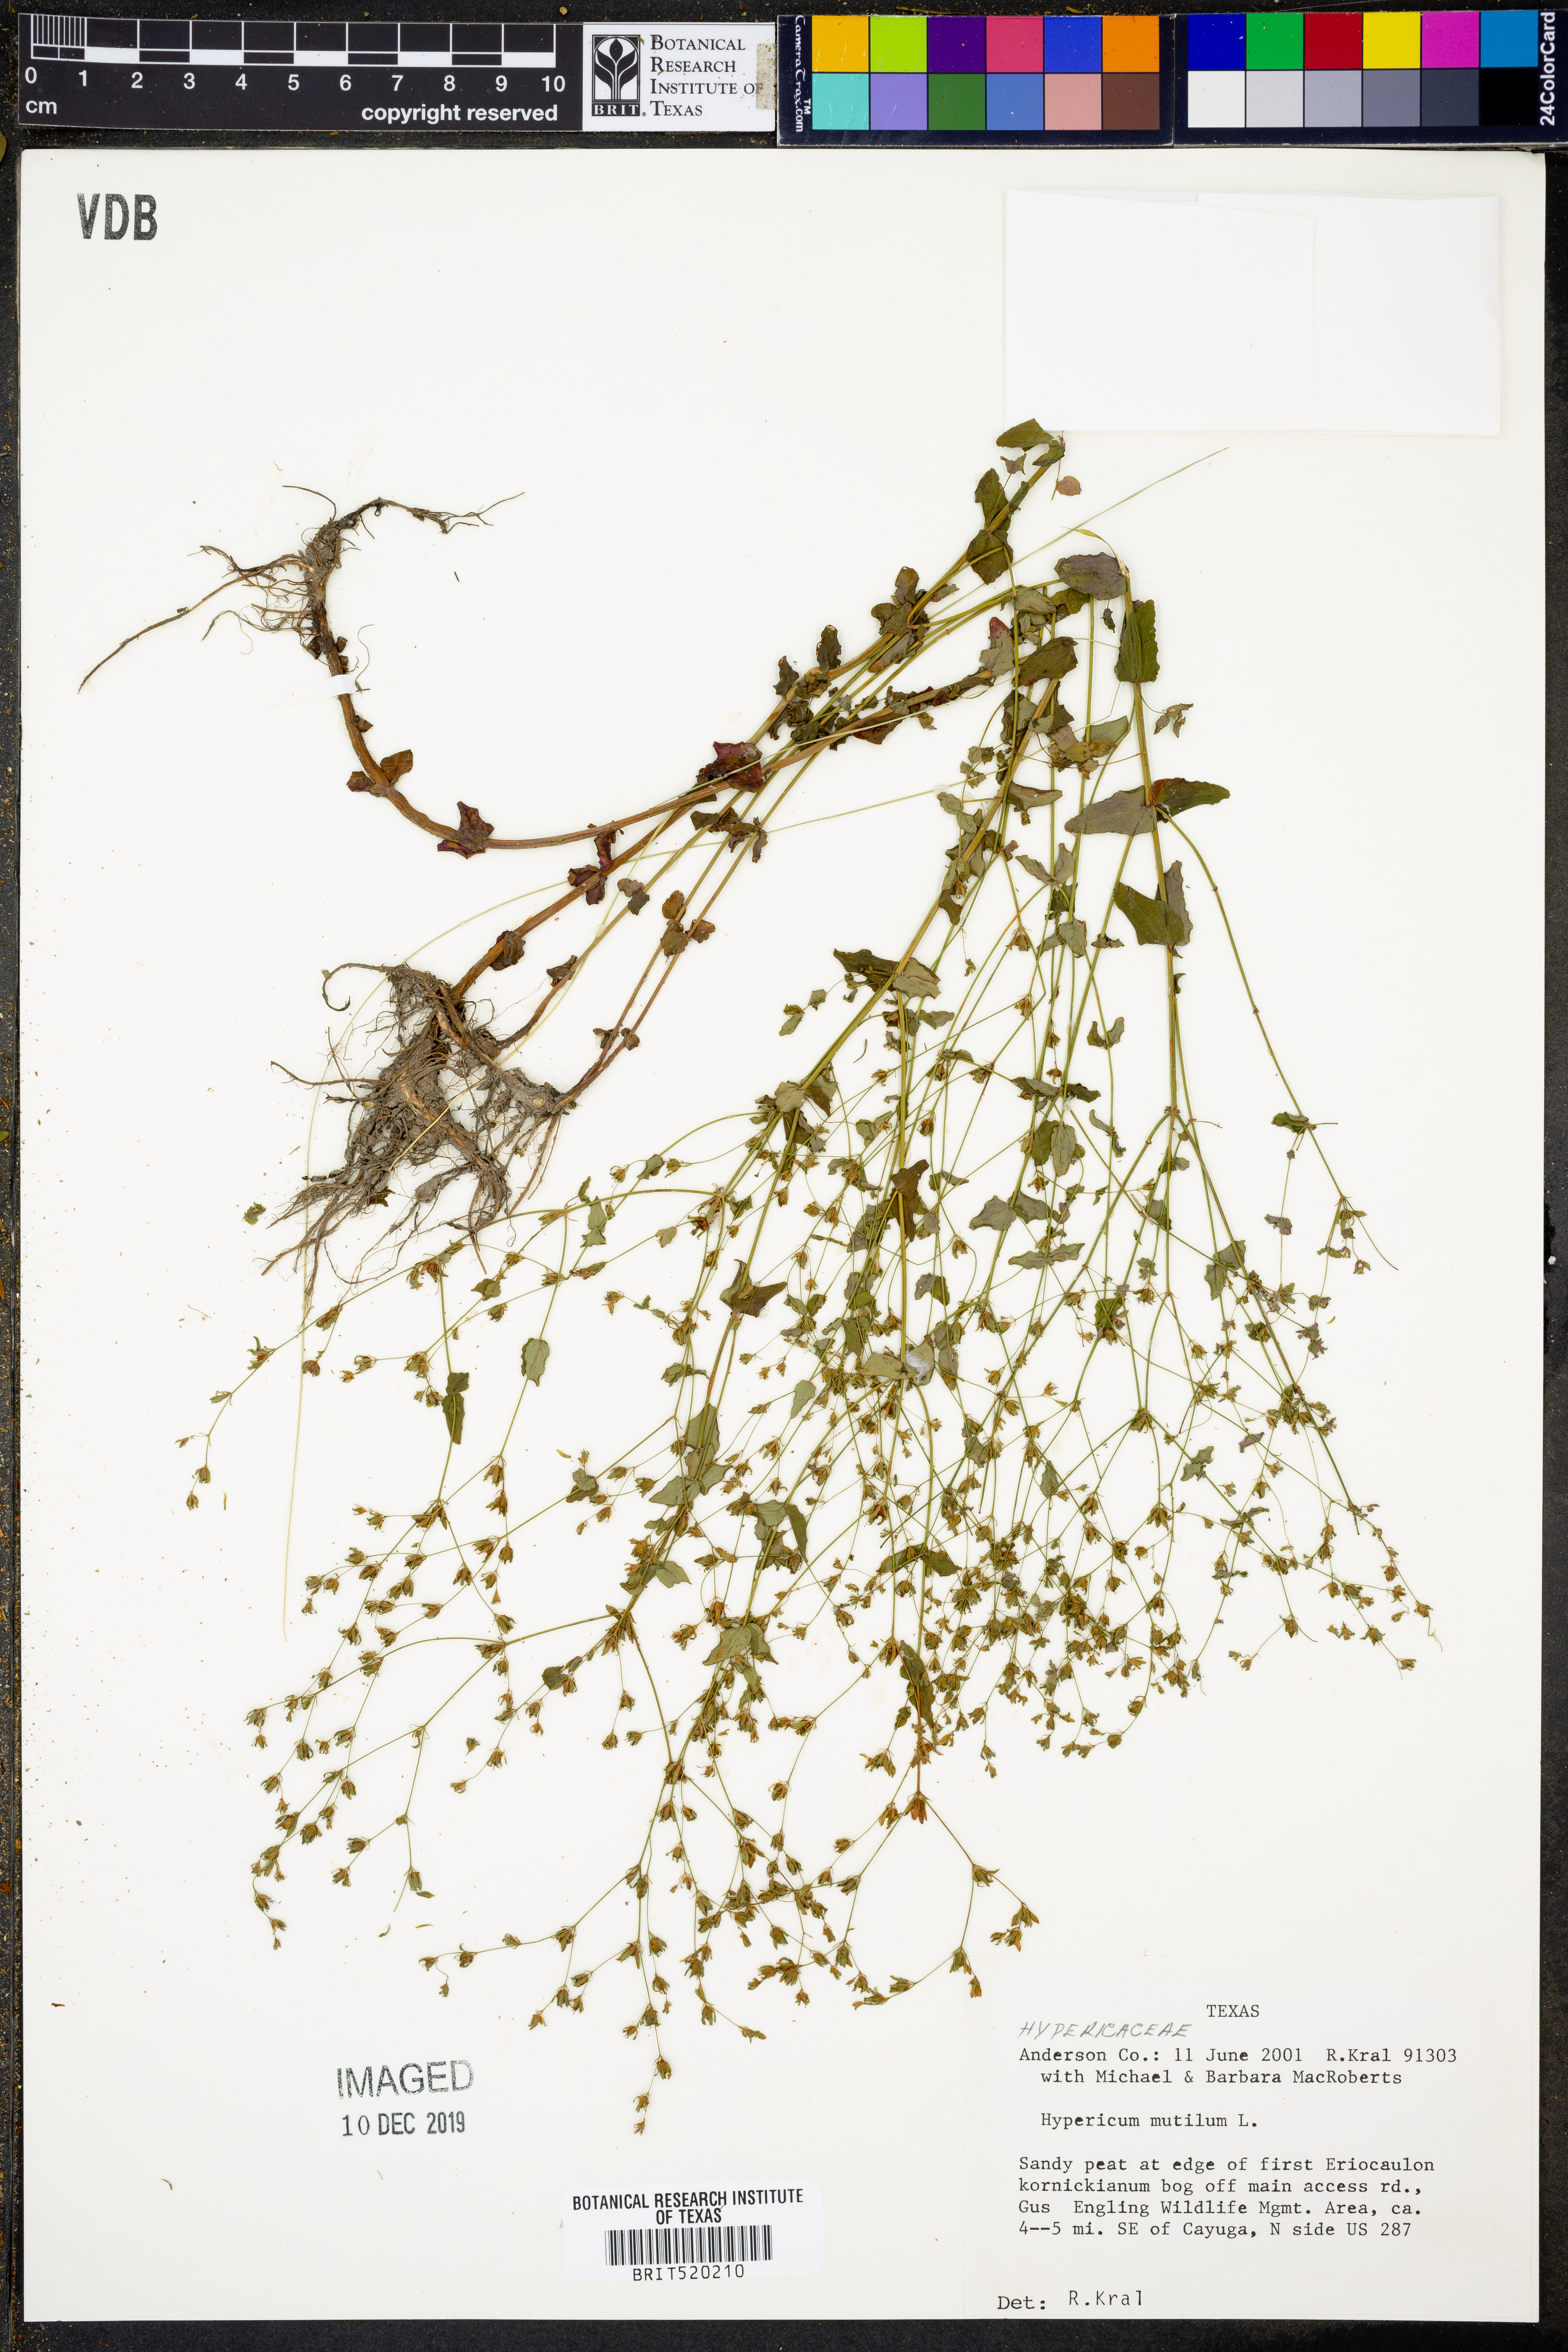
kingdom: Plantae
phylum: Tracheophyta
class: Magnoliopsida
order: Malpighiales
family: Hypericaceae
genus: Hypericum
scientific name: Hypericum mutilum
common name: Dwarf st. john's-wort
